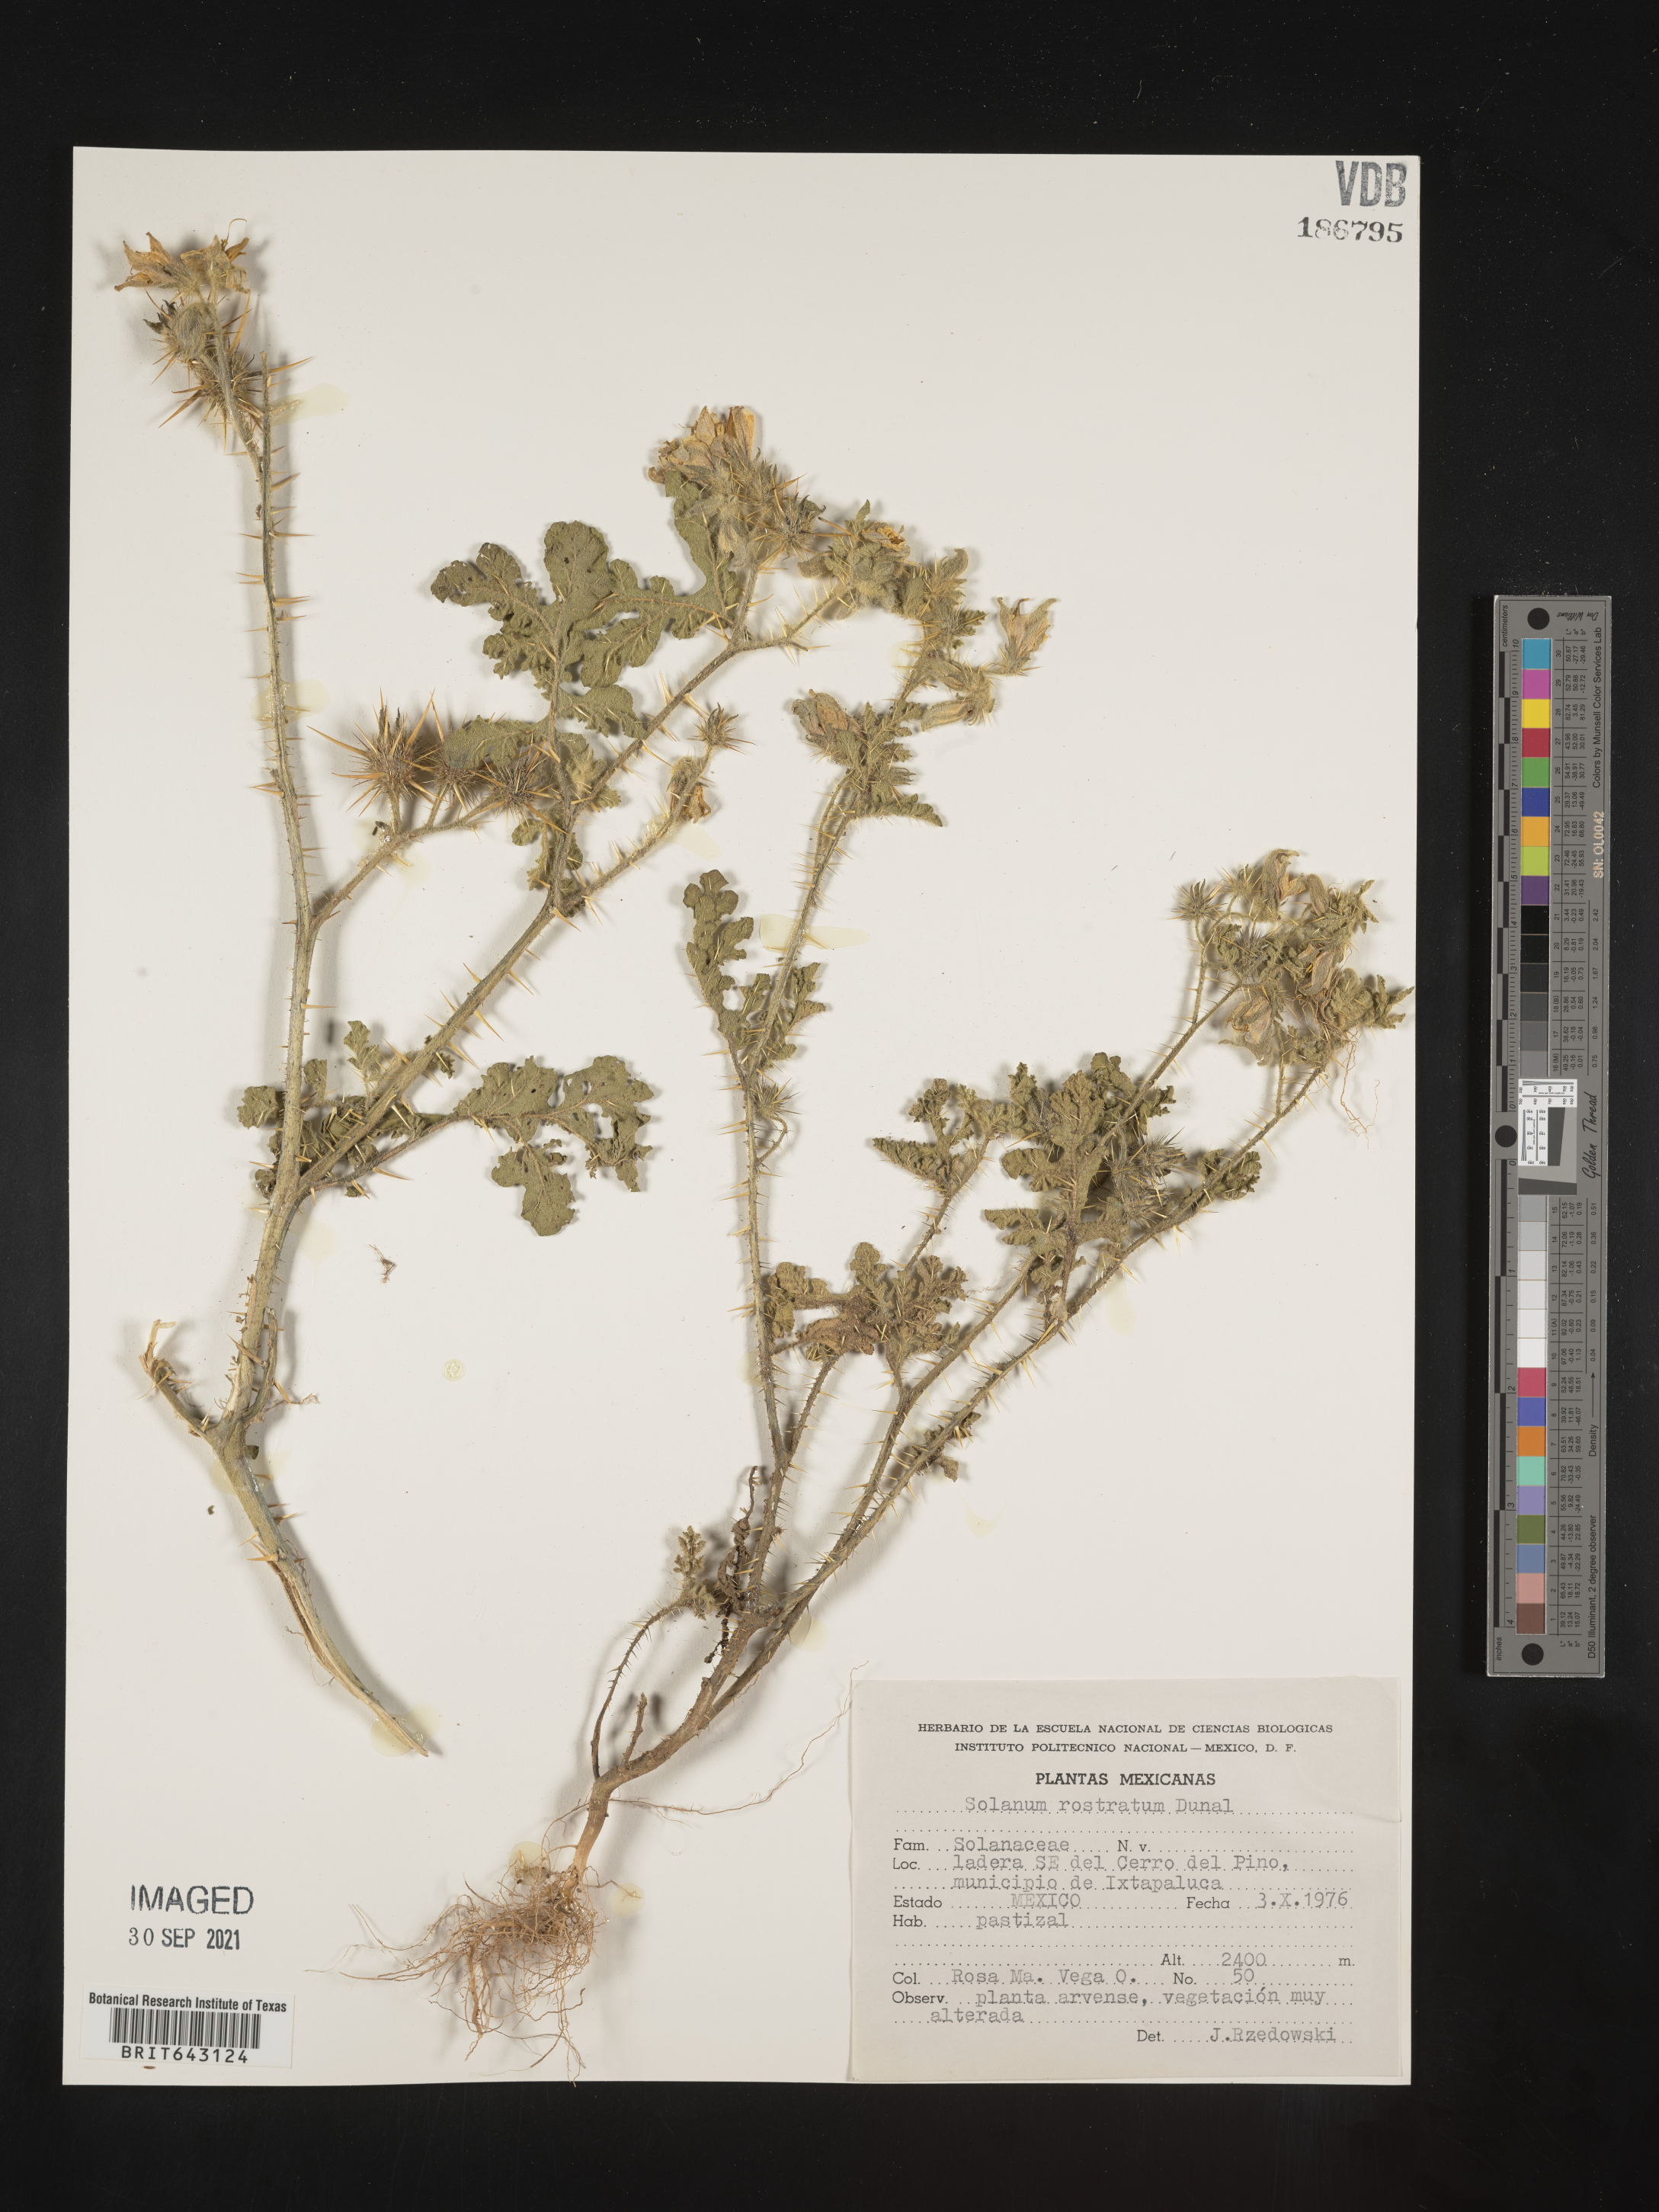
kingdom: Plantae
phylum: Tracheophyta
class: Magnoliopsida
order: Solanales
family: Solanaceae
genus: Solanum
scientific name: Solanum
